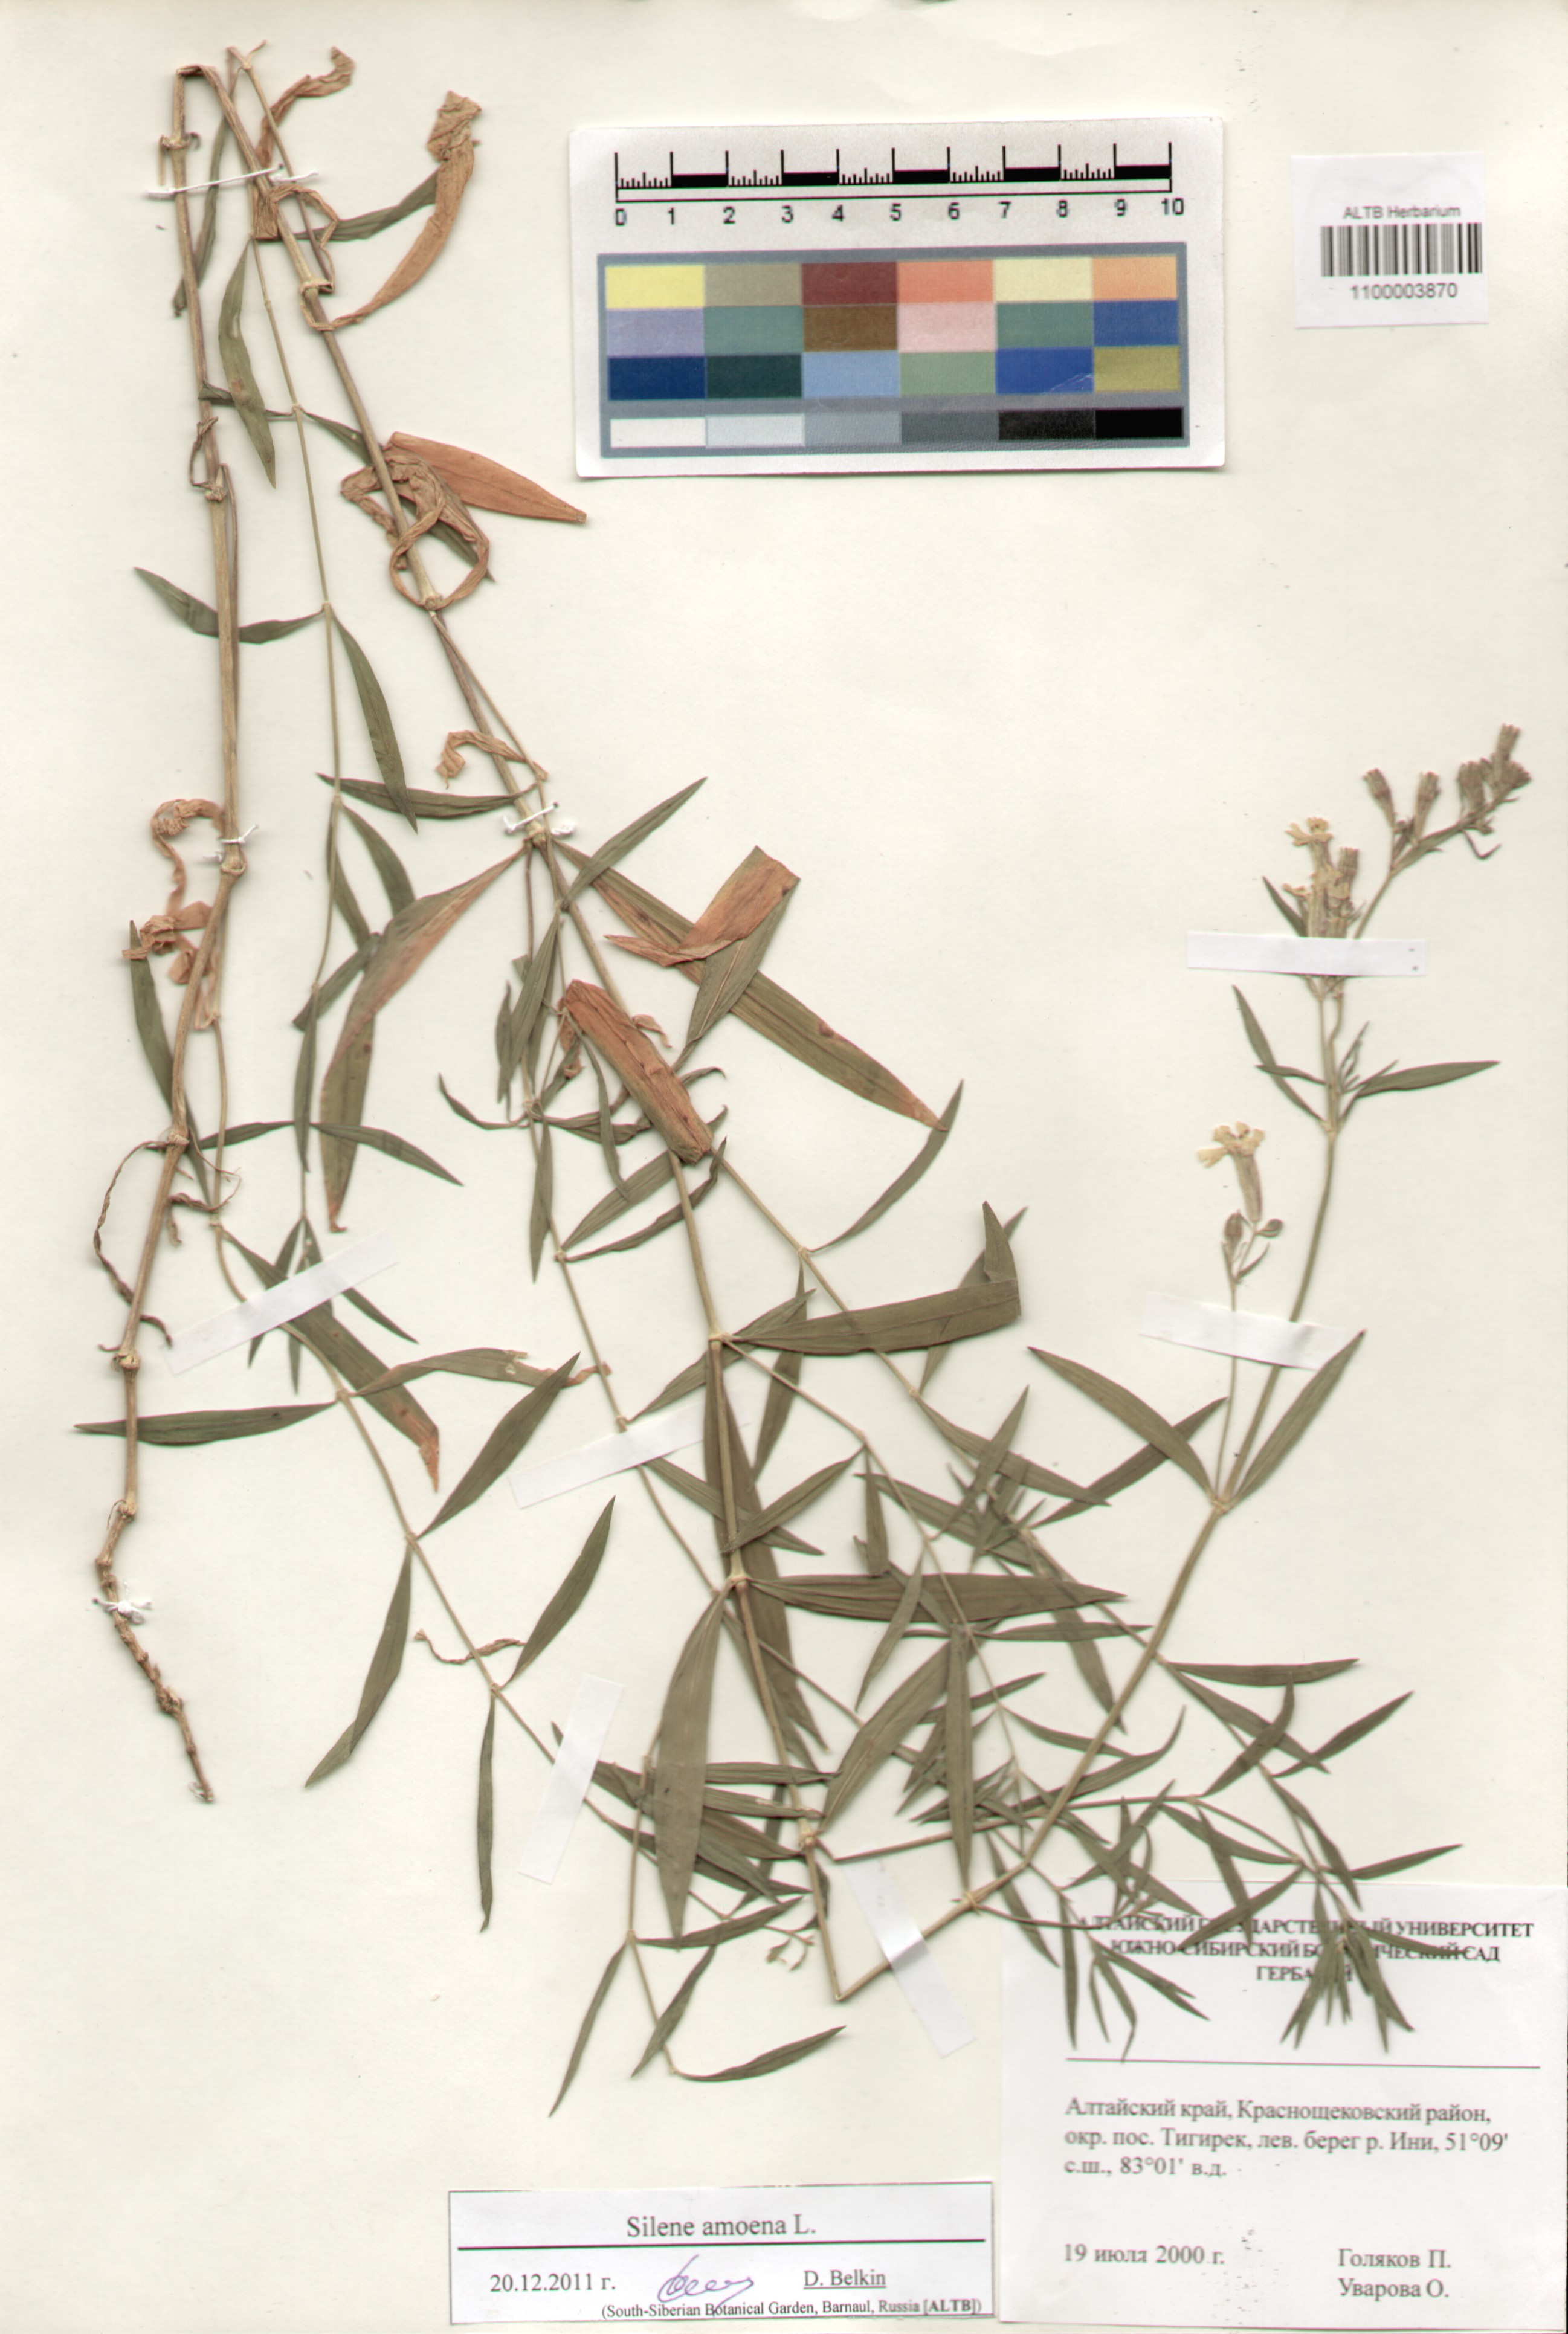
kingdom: Plantae
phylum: Tracheophyta
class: Magnoliopsida
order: Caryophyllales
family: Caryophyllaceae
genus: Silene
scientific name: Silene amoena
